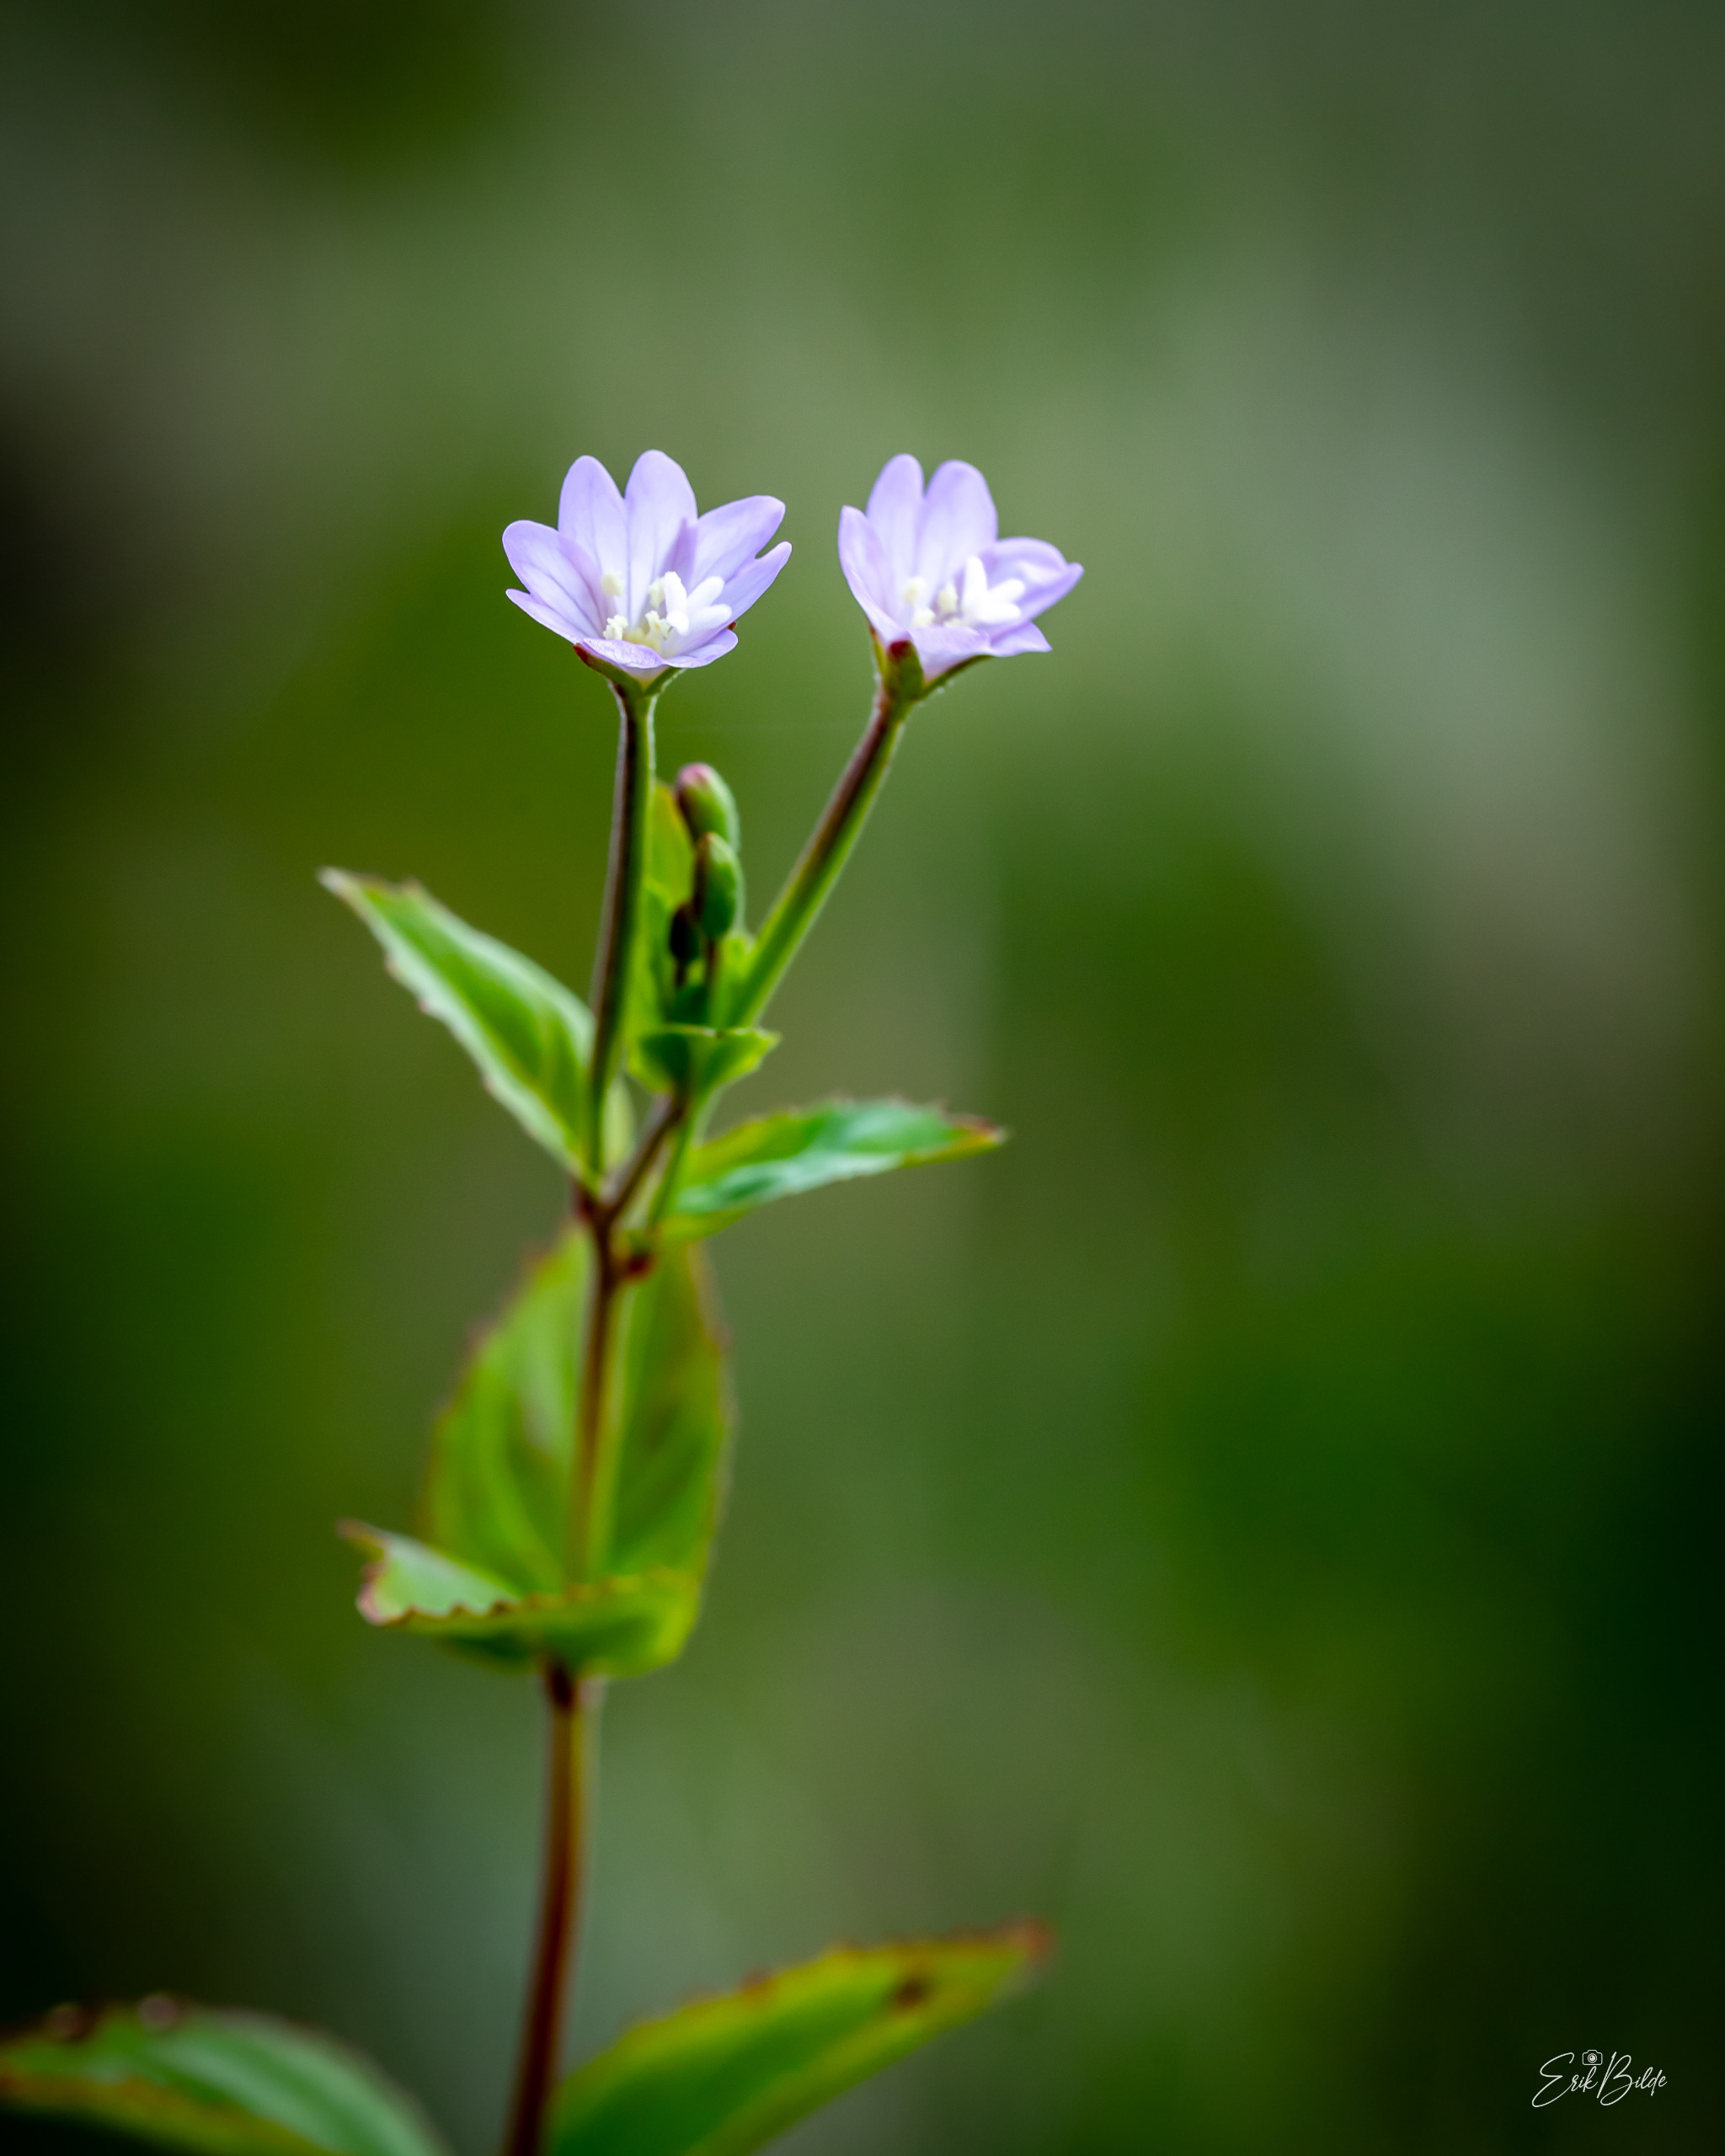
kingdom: Plantae
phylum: Tracheophyta
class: Magnoliopsida
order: Myrtales
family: Onagraceae
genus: Epilobium
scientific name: Epilobium montanum
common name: Glat dueurt
